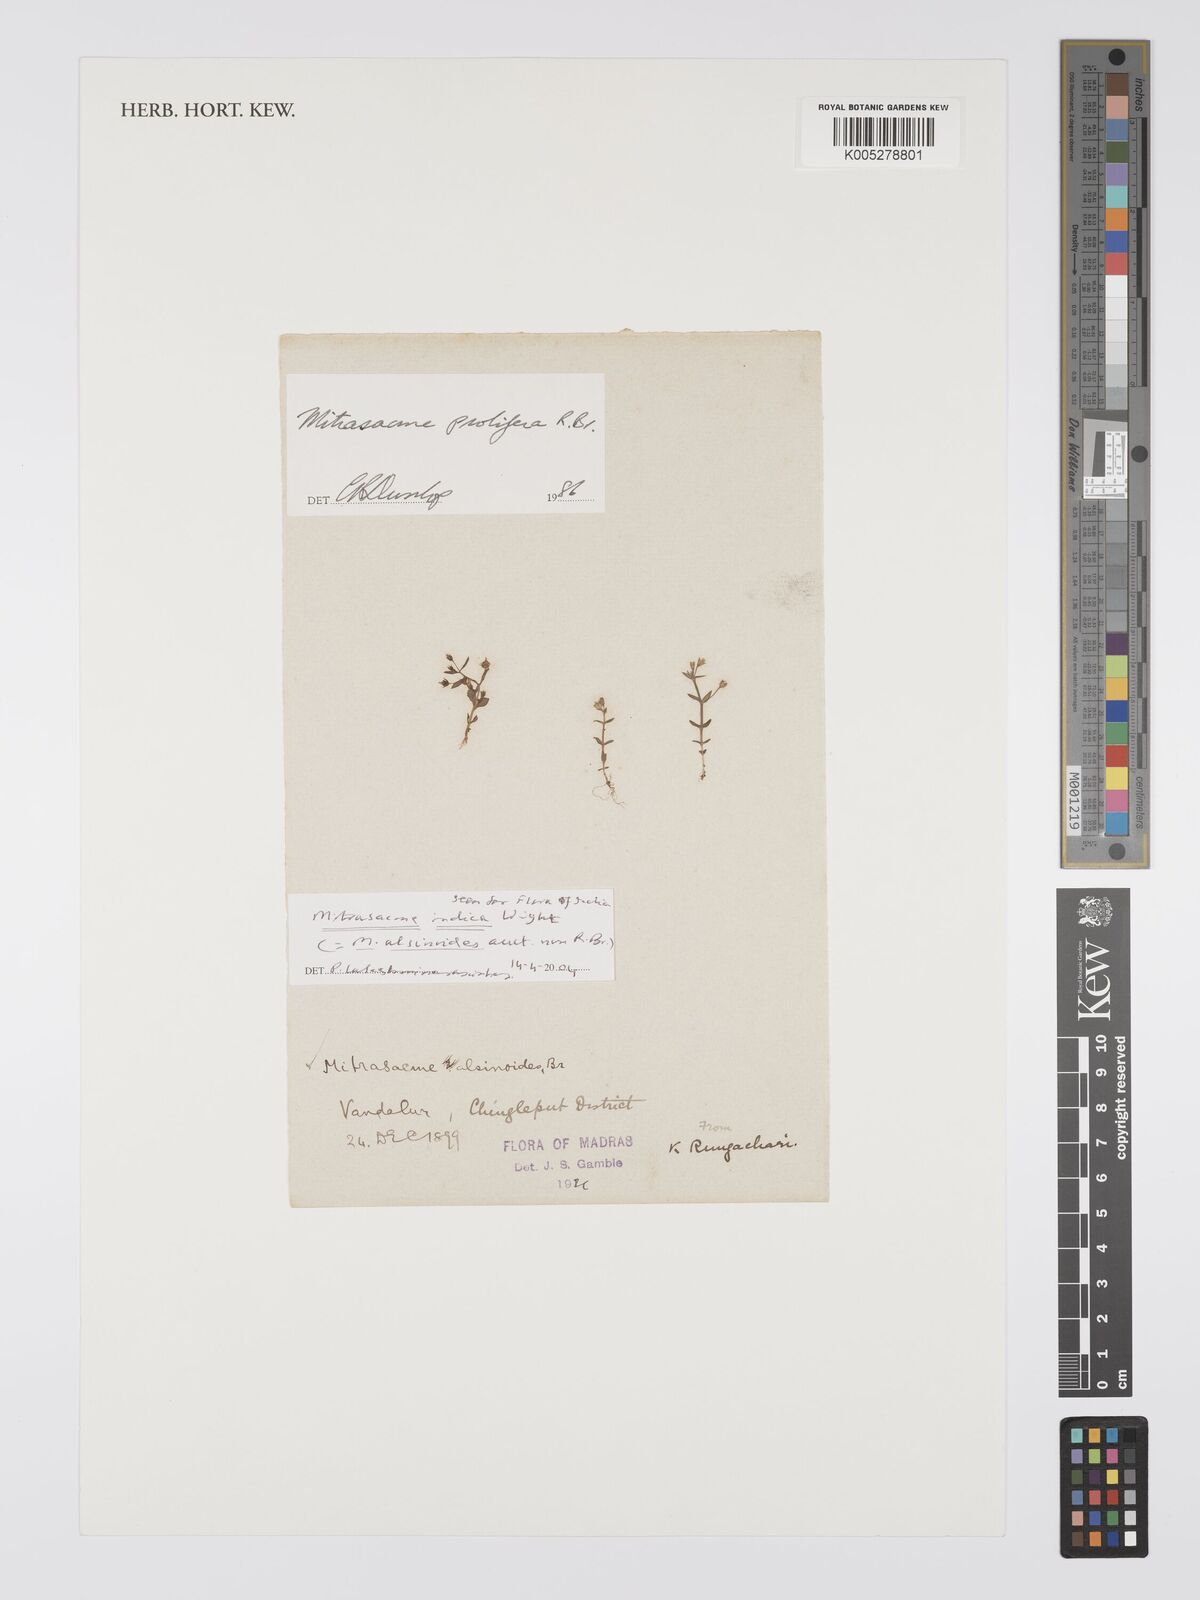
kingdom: Plantae
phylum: Tracheophyta
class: Magnoliopsida
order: Gentianales
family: Loganiaceae
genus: Mitrasacme
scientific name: Mitrasacme prolifera
